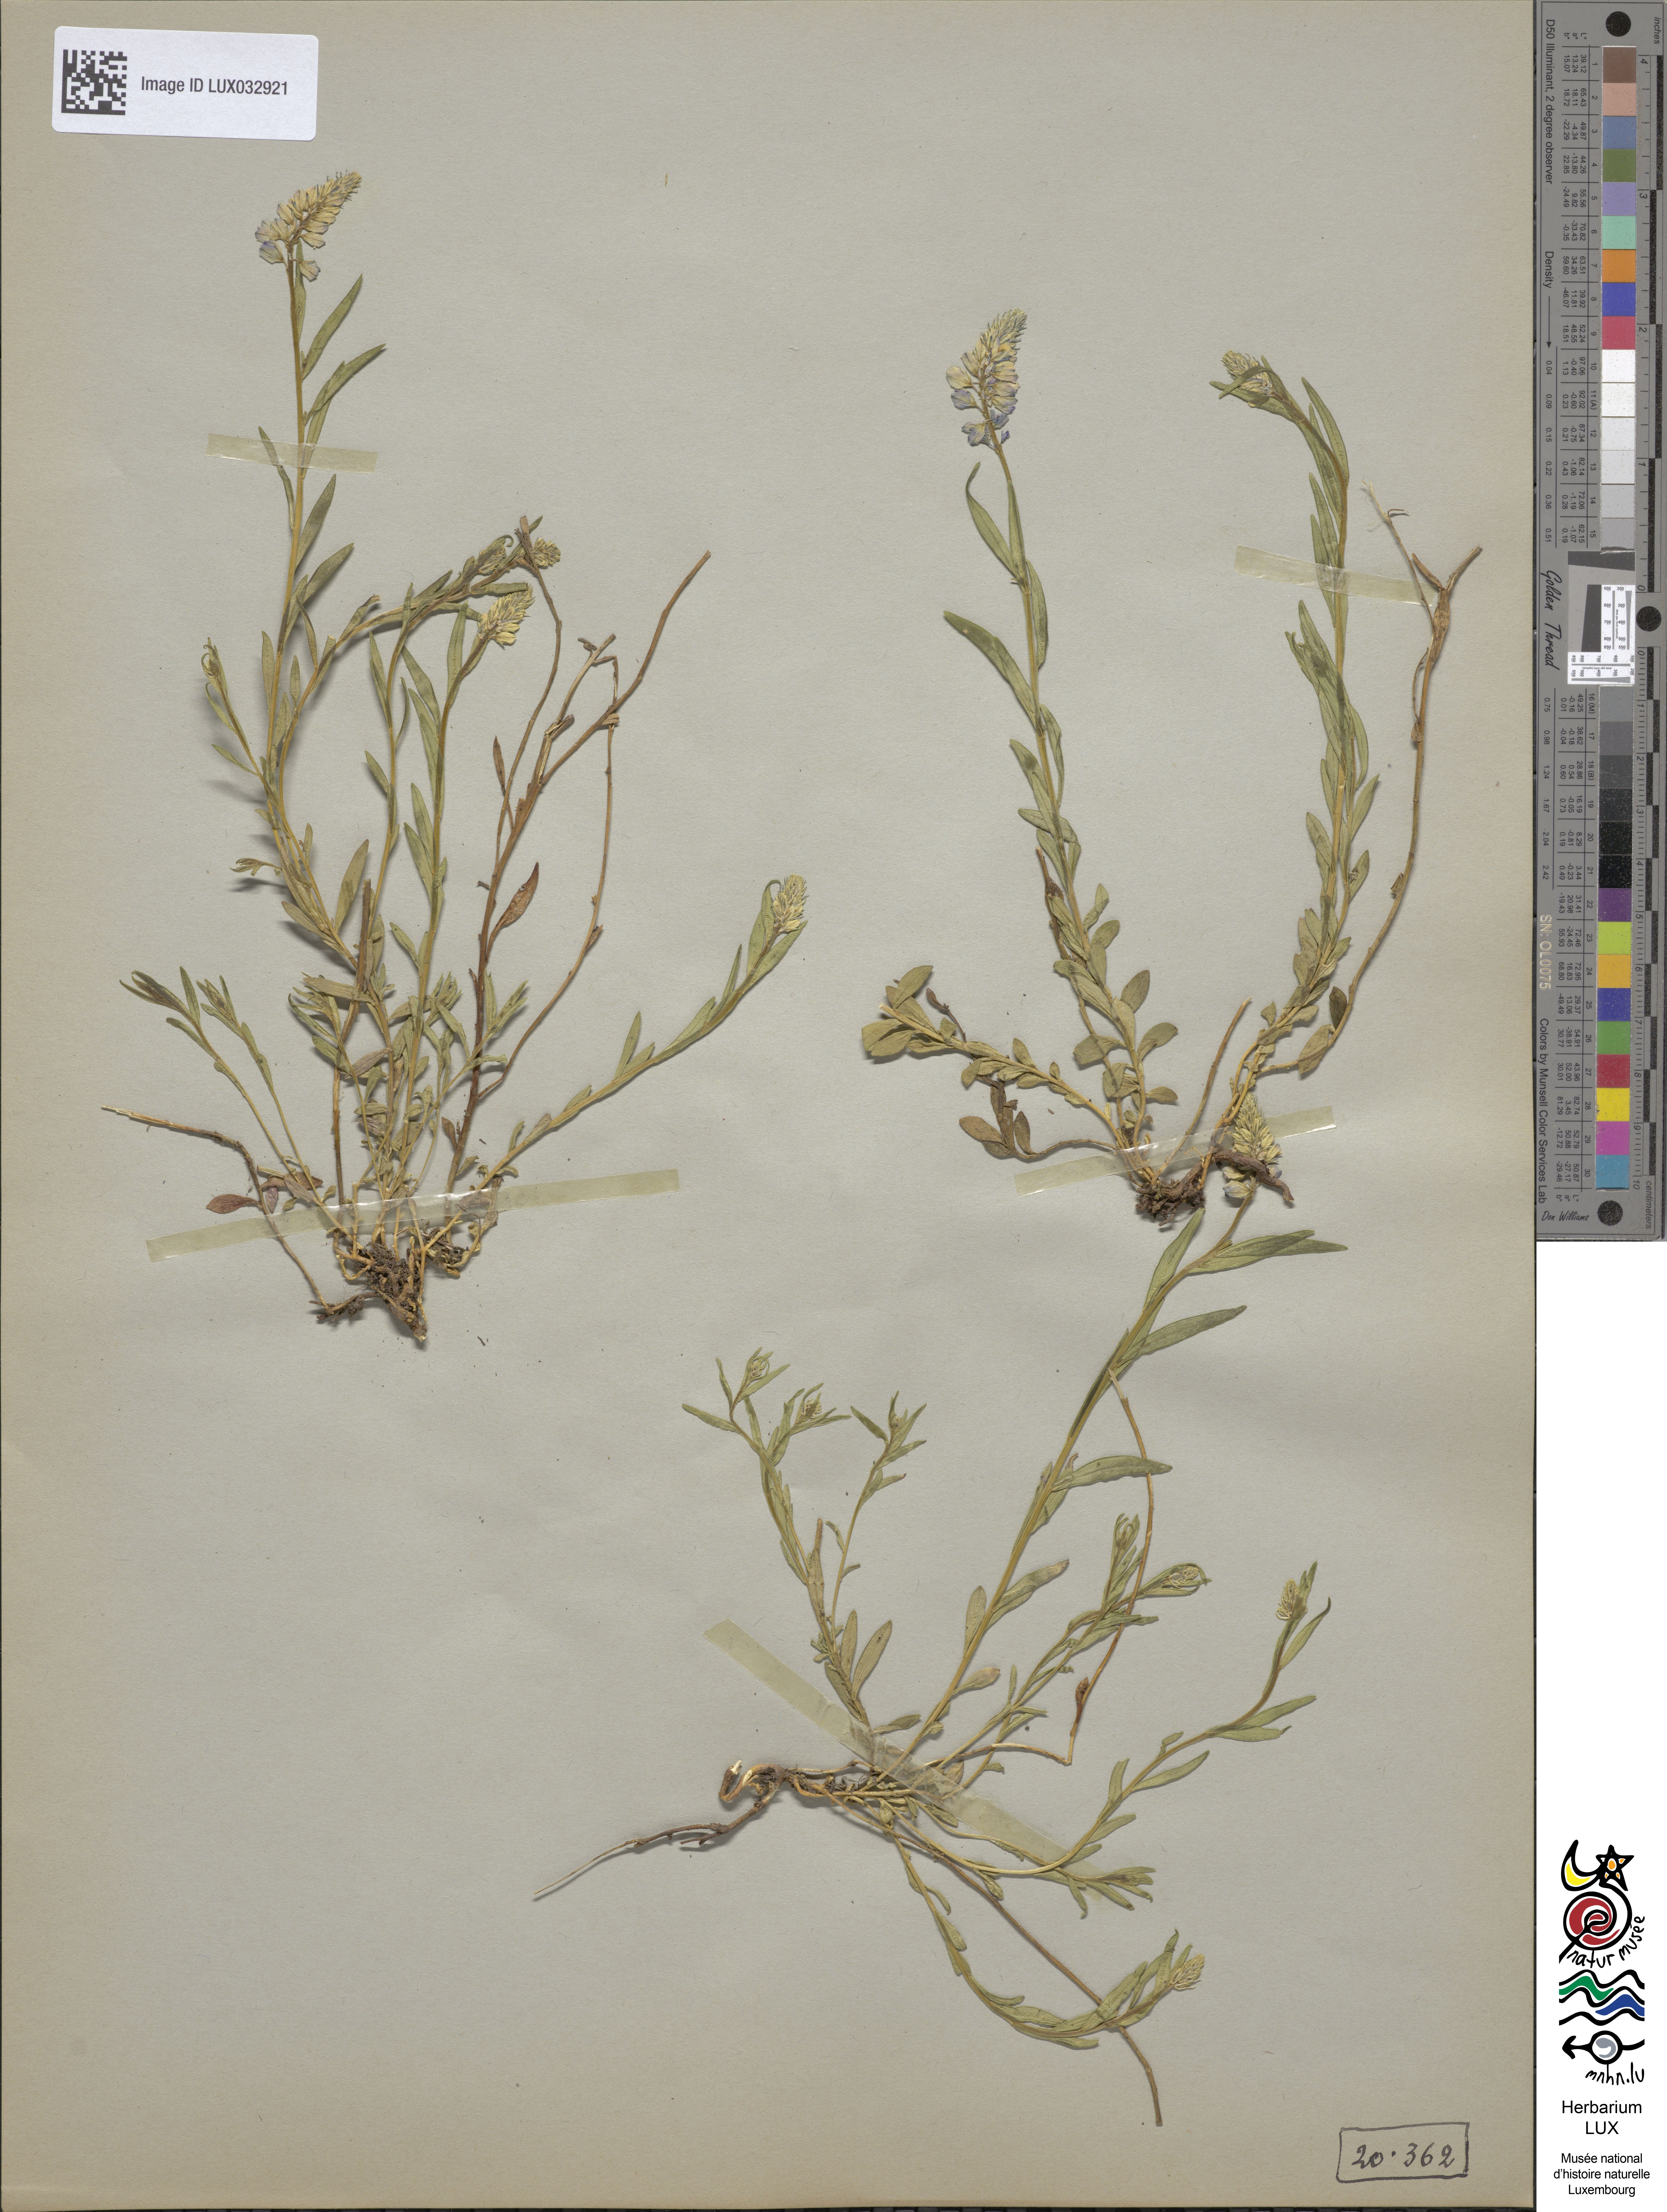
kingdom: Plantae
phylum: Tracheophyta
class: Magnoliopsida
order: Fabales
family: Polygalaceae
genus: Polygala
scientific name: Polygala comosa
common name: Tufted milkwort
